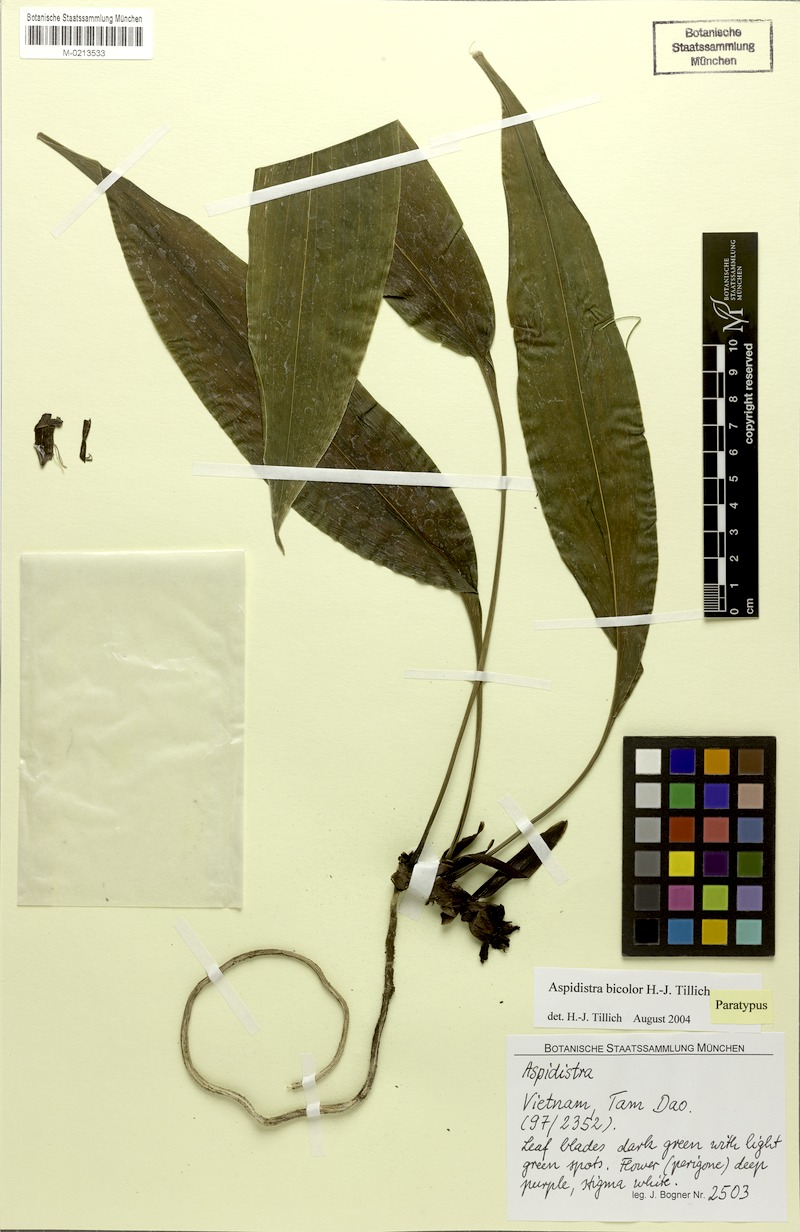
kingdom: Plantae
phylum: Tracheophyta
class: Liliopsida
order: Asparagales
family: Asparagaceae
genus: Aspidistra
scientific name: Aspidistra bicolor
